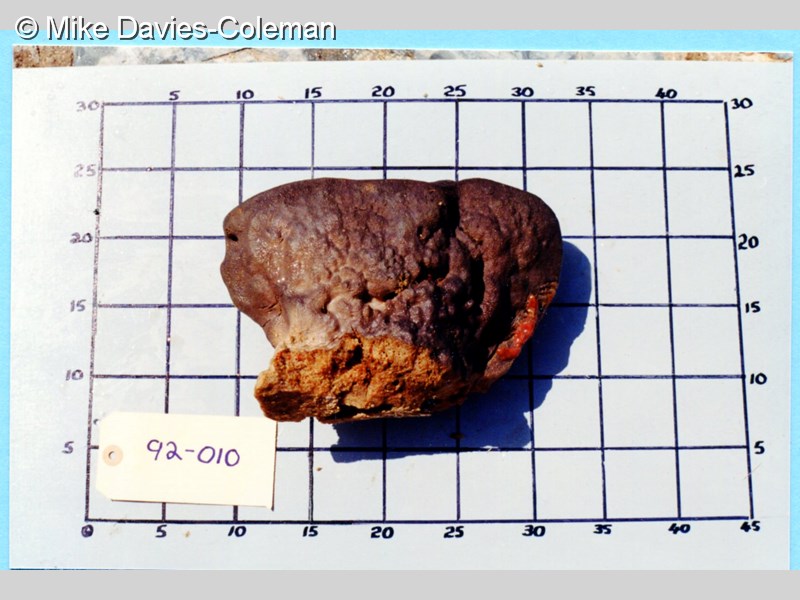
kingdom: Animalia
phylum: Porifera
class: Demospongiae
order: Clionaida
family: Clionaidae
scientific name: Clionaidae
